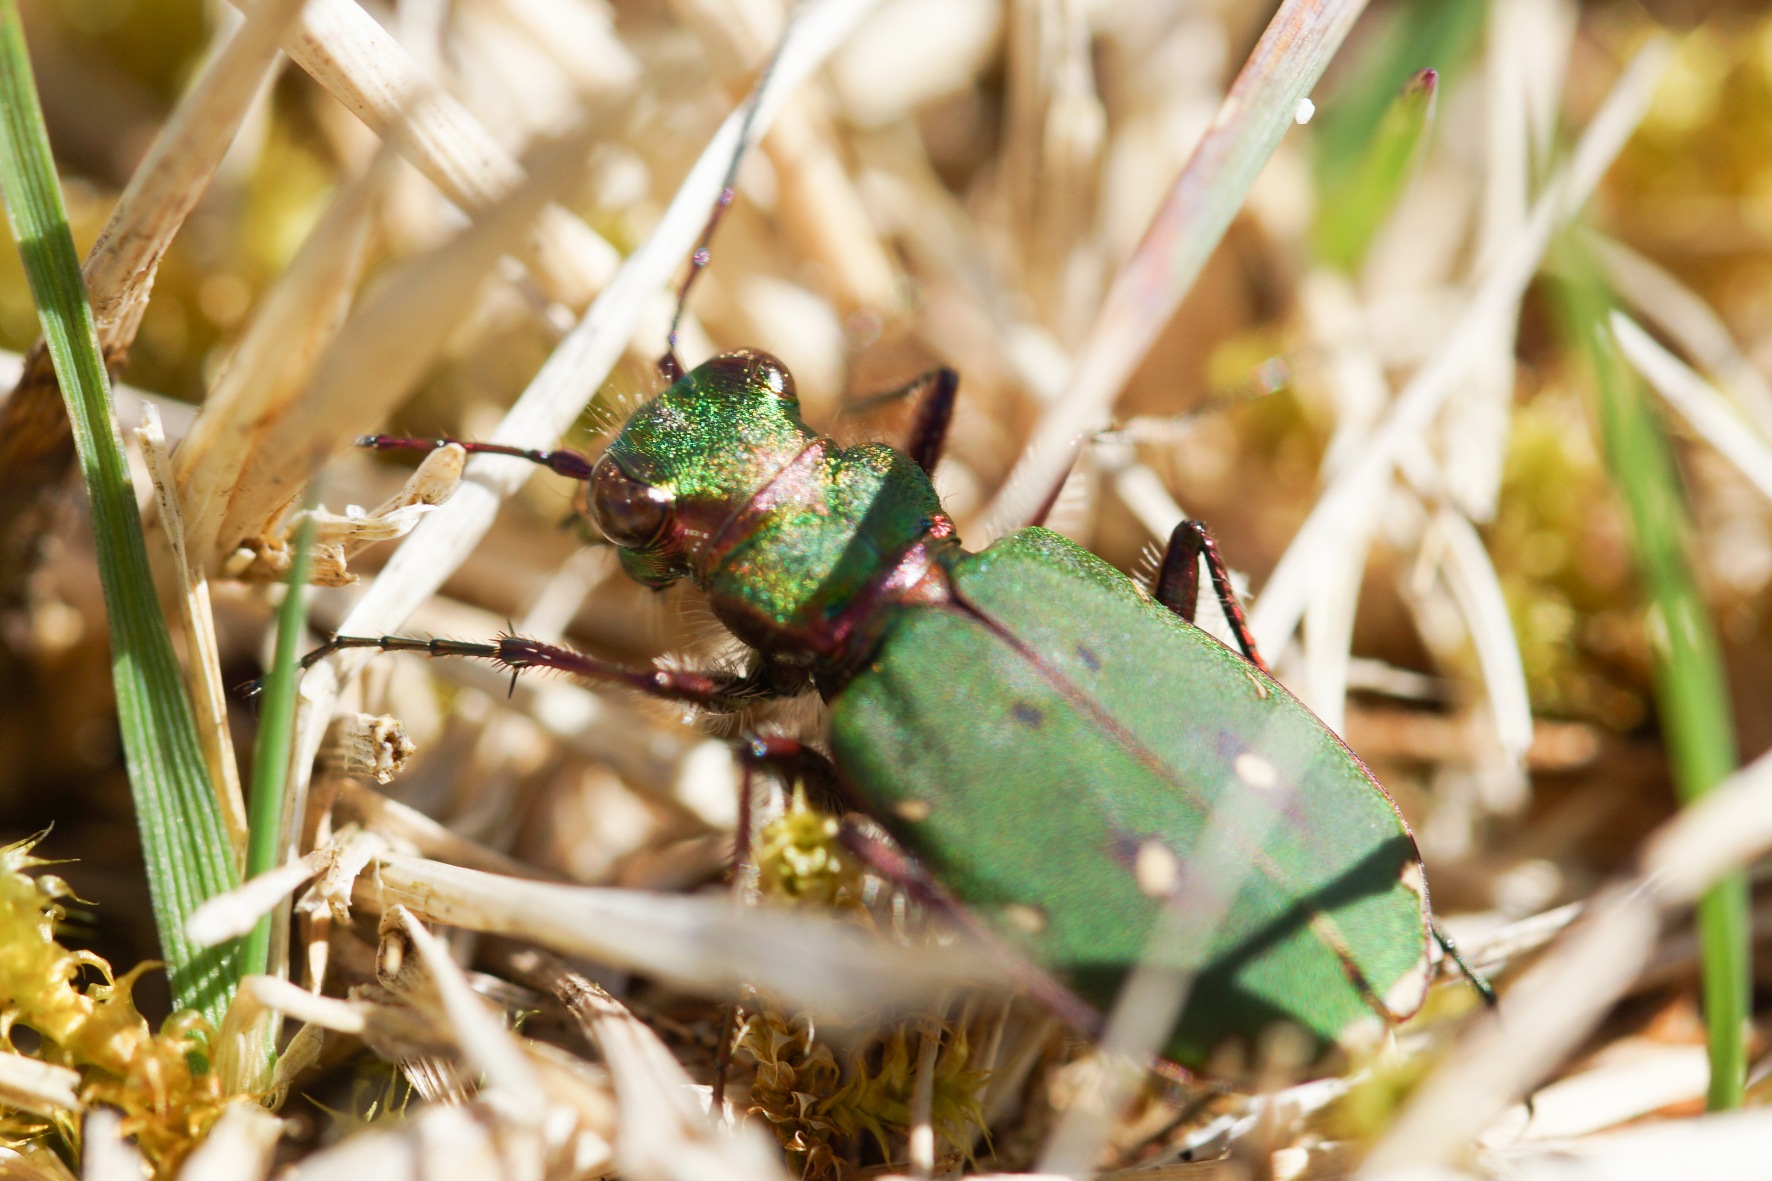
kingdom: Animalia
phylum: Arthropoda
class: Insecta
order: Coleoptera
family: Carabidae
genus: Cicindela
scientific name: Cicindela campestris
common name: Grøn sandspringer
